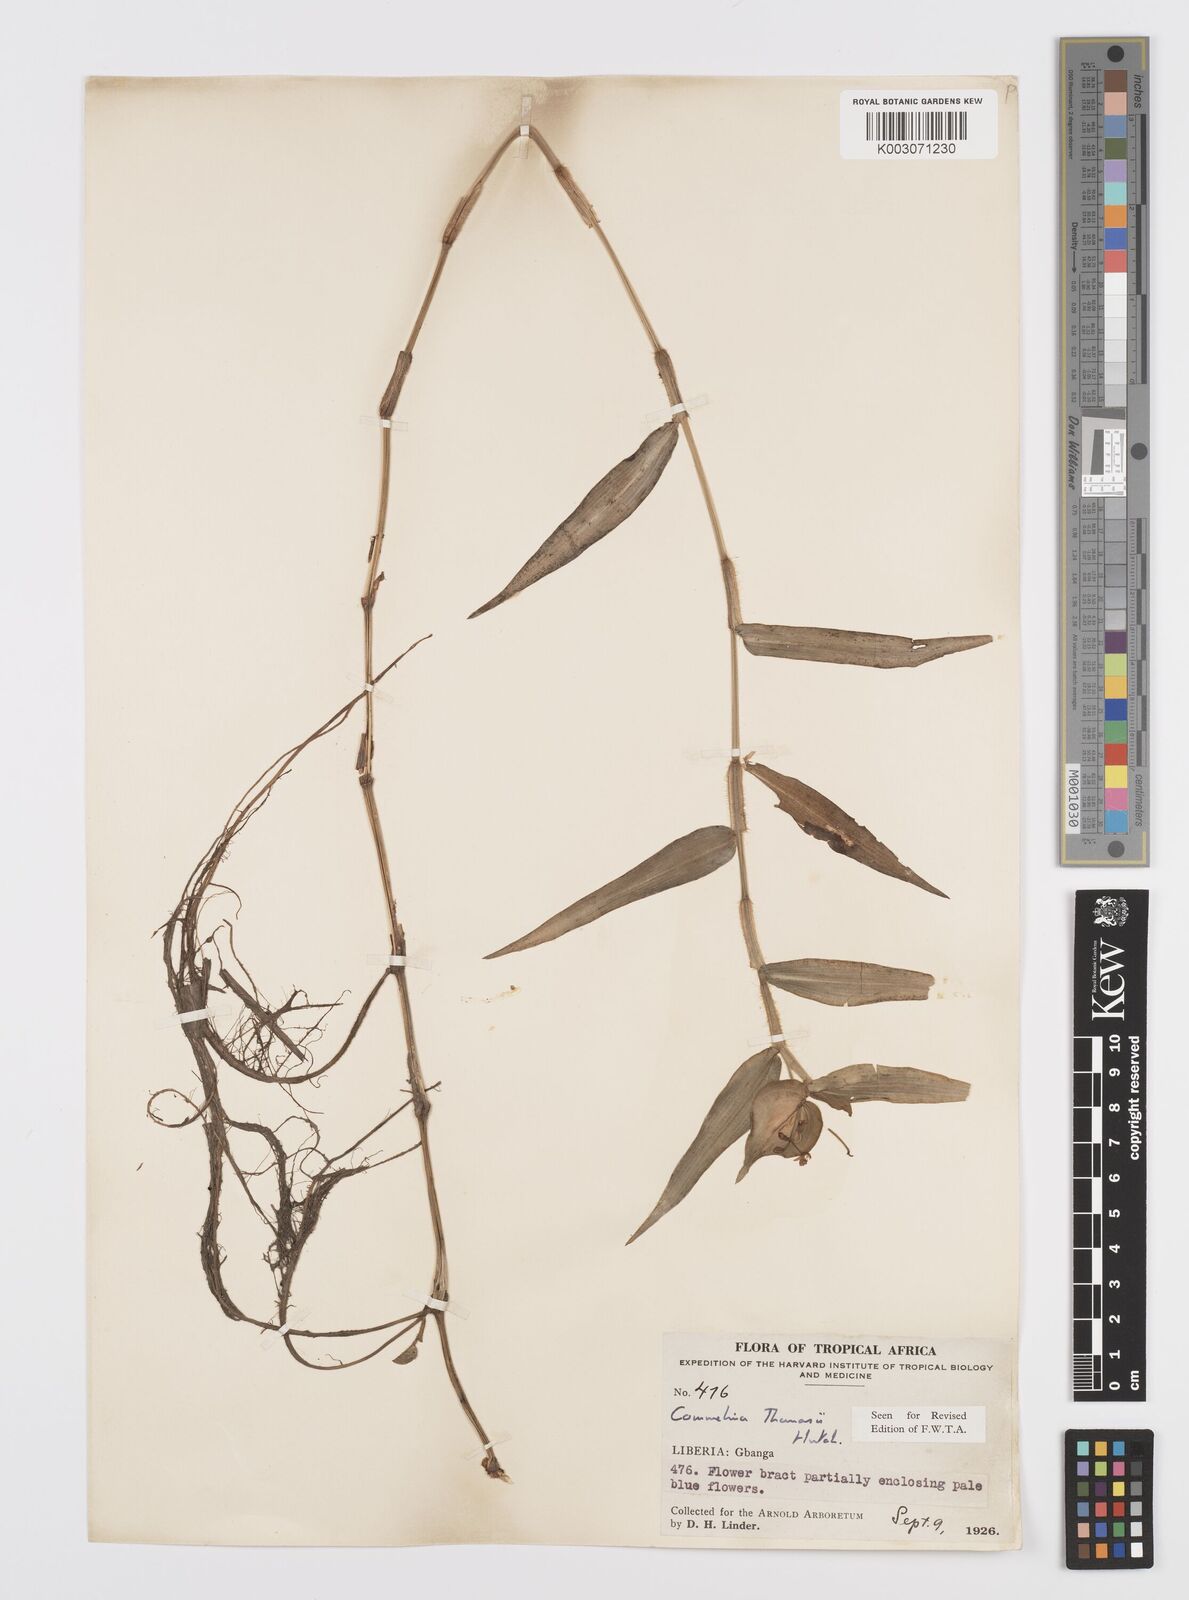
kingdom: Plantae
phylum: Tracheophyta
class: Liliopsida
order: Commelinales
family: Commelinaceae
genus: Commelina
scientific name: Commelina acutispatha
